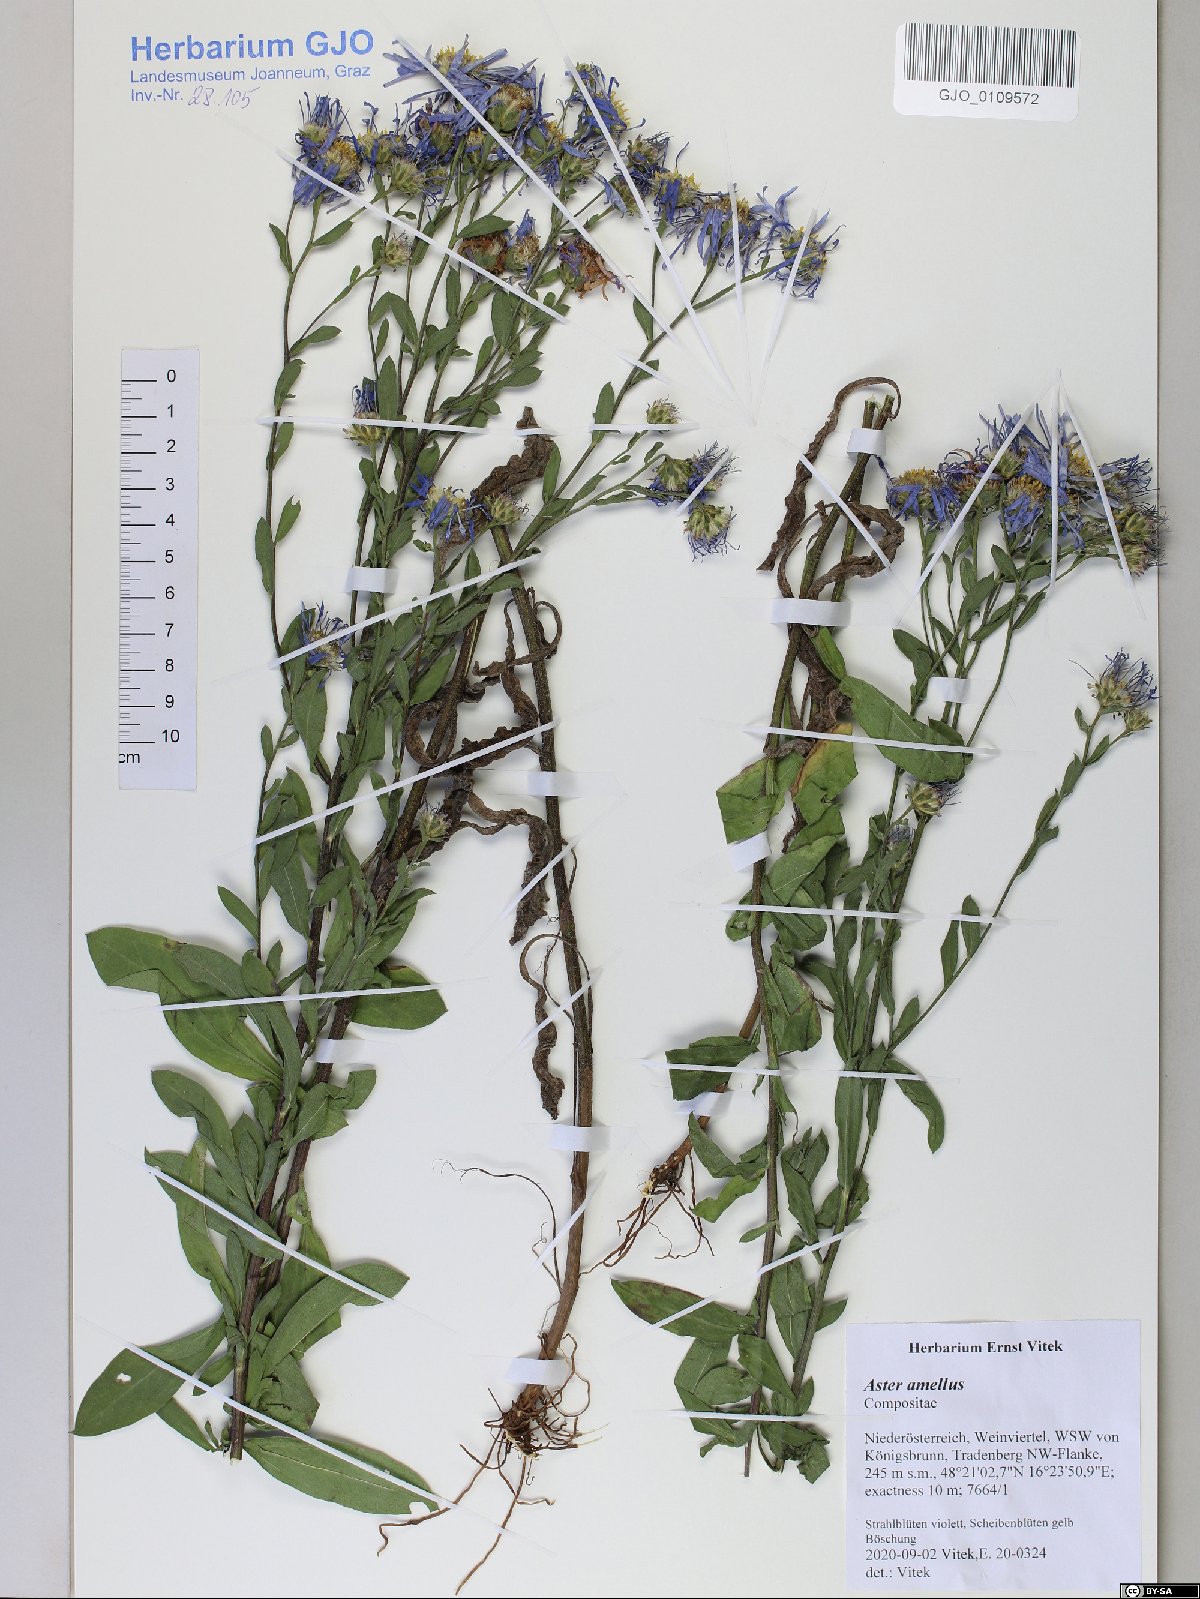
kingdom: Plantae
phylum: Tracheophyta
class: Magnoliopsida
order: Asterales
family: Asteraceae
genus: Aster
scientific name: Aster amellus
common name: European michaelmas daisy
